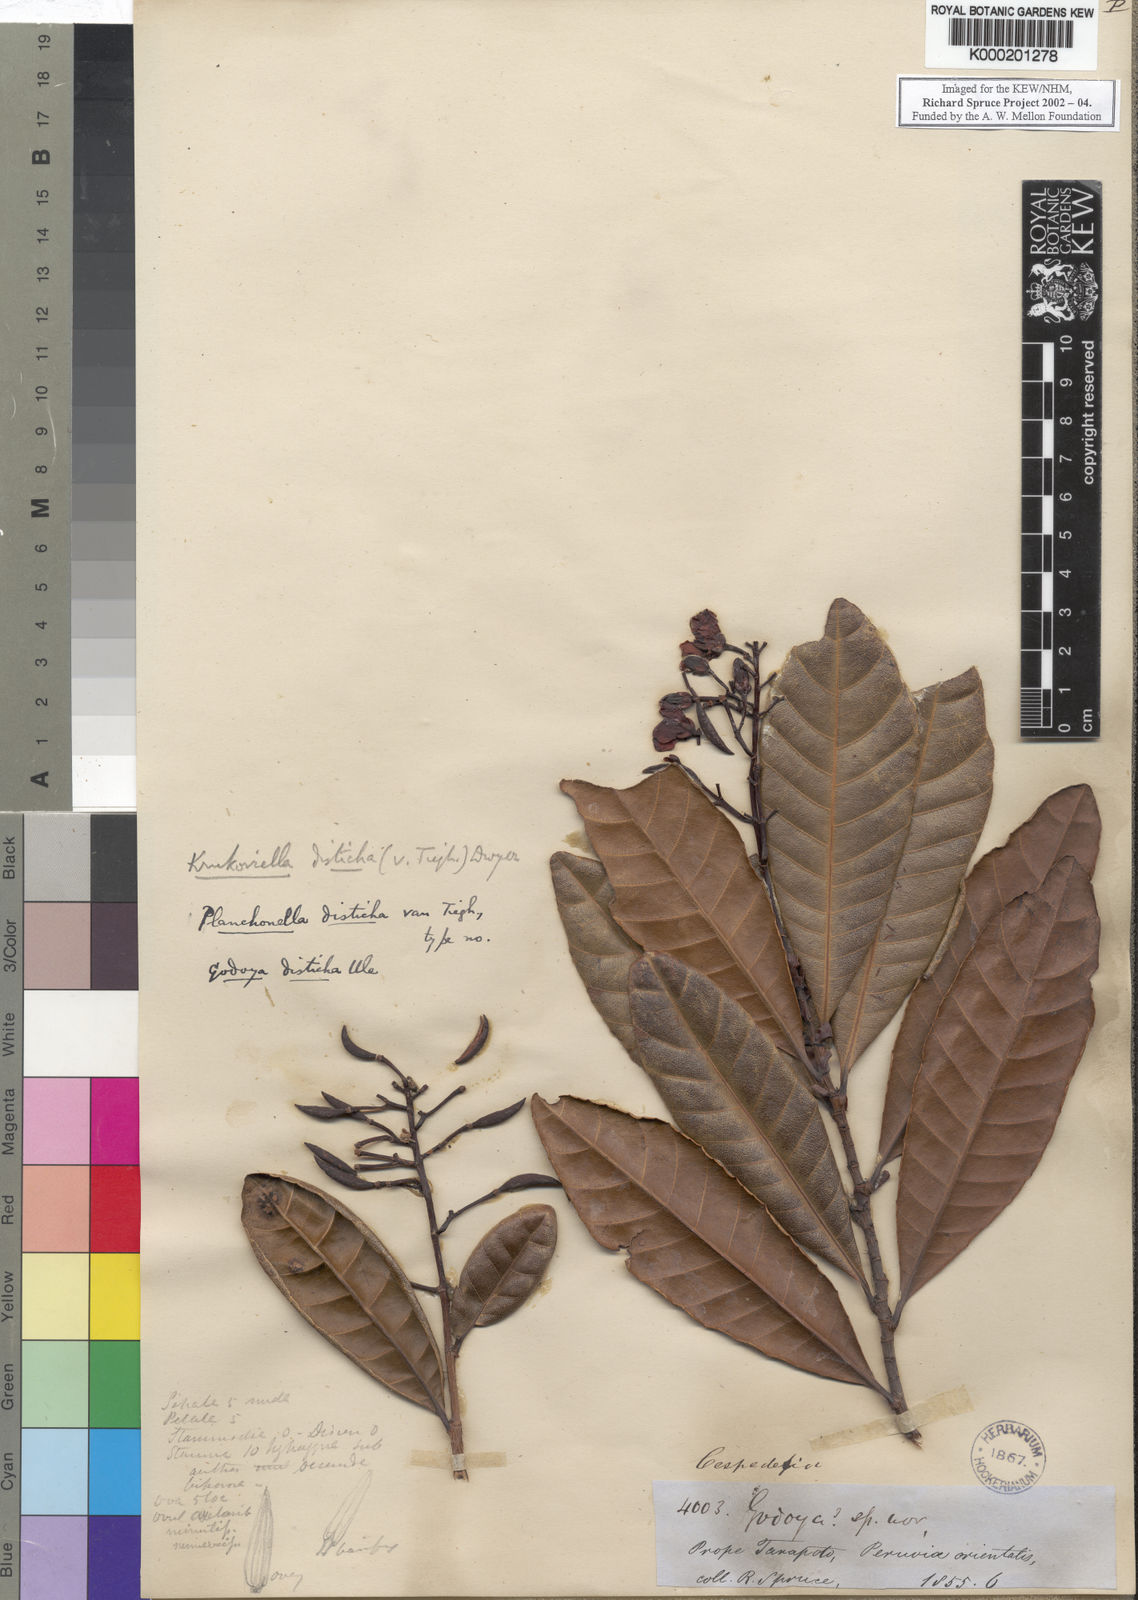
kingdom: Plantae
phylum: Tracheophyta
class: Magnoliopsida
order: Malpighiales
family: Ochnaceae
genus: Krukoviella
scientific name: Krukoviella disticha
